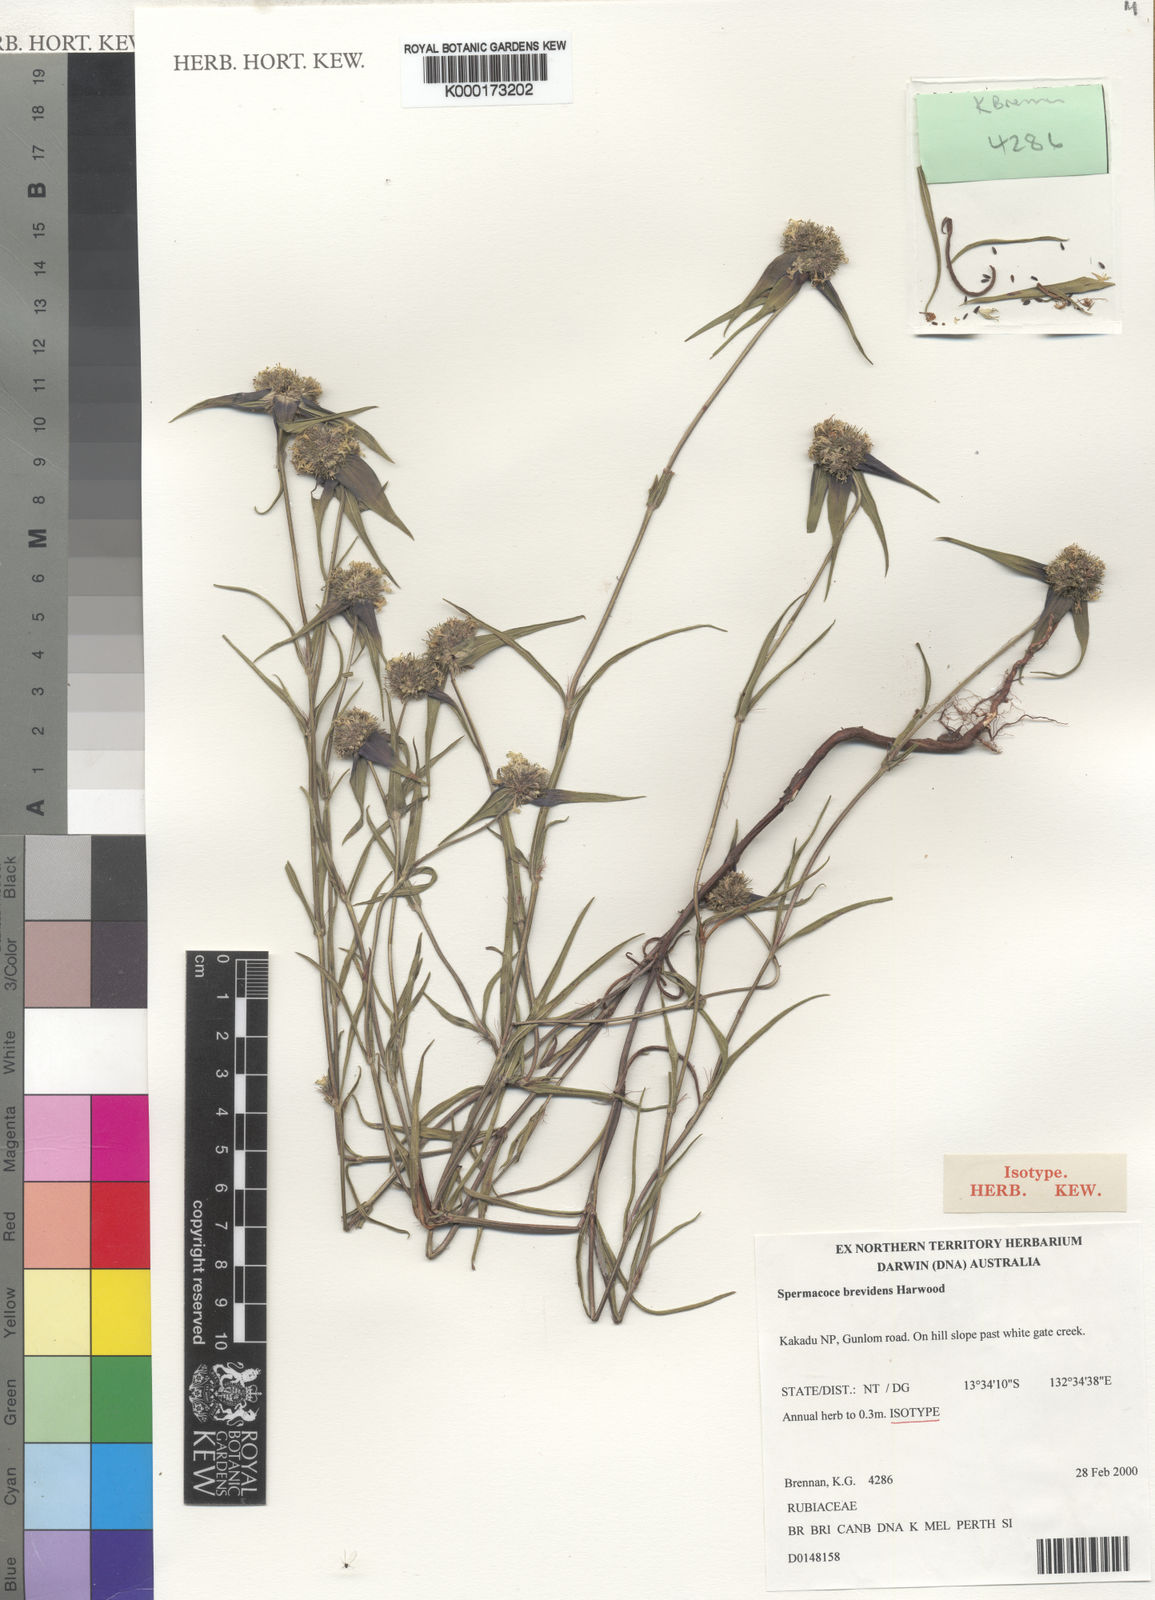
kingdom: Plantae
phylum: Tracheophyta
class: Magnoliopsida
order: Gentianales
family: Rubiaceae
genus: Spermacoce
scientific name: Spermacoce brevidens
